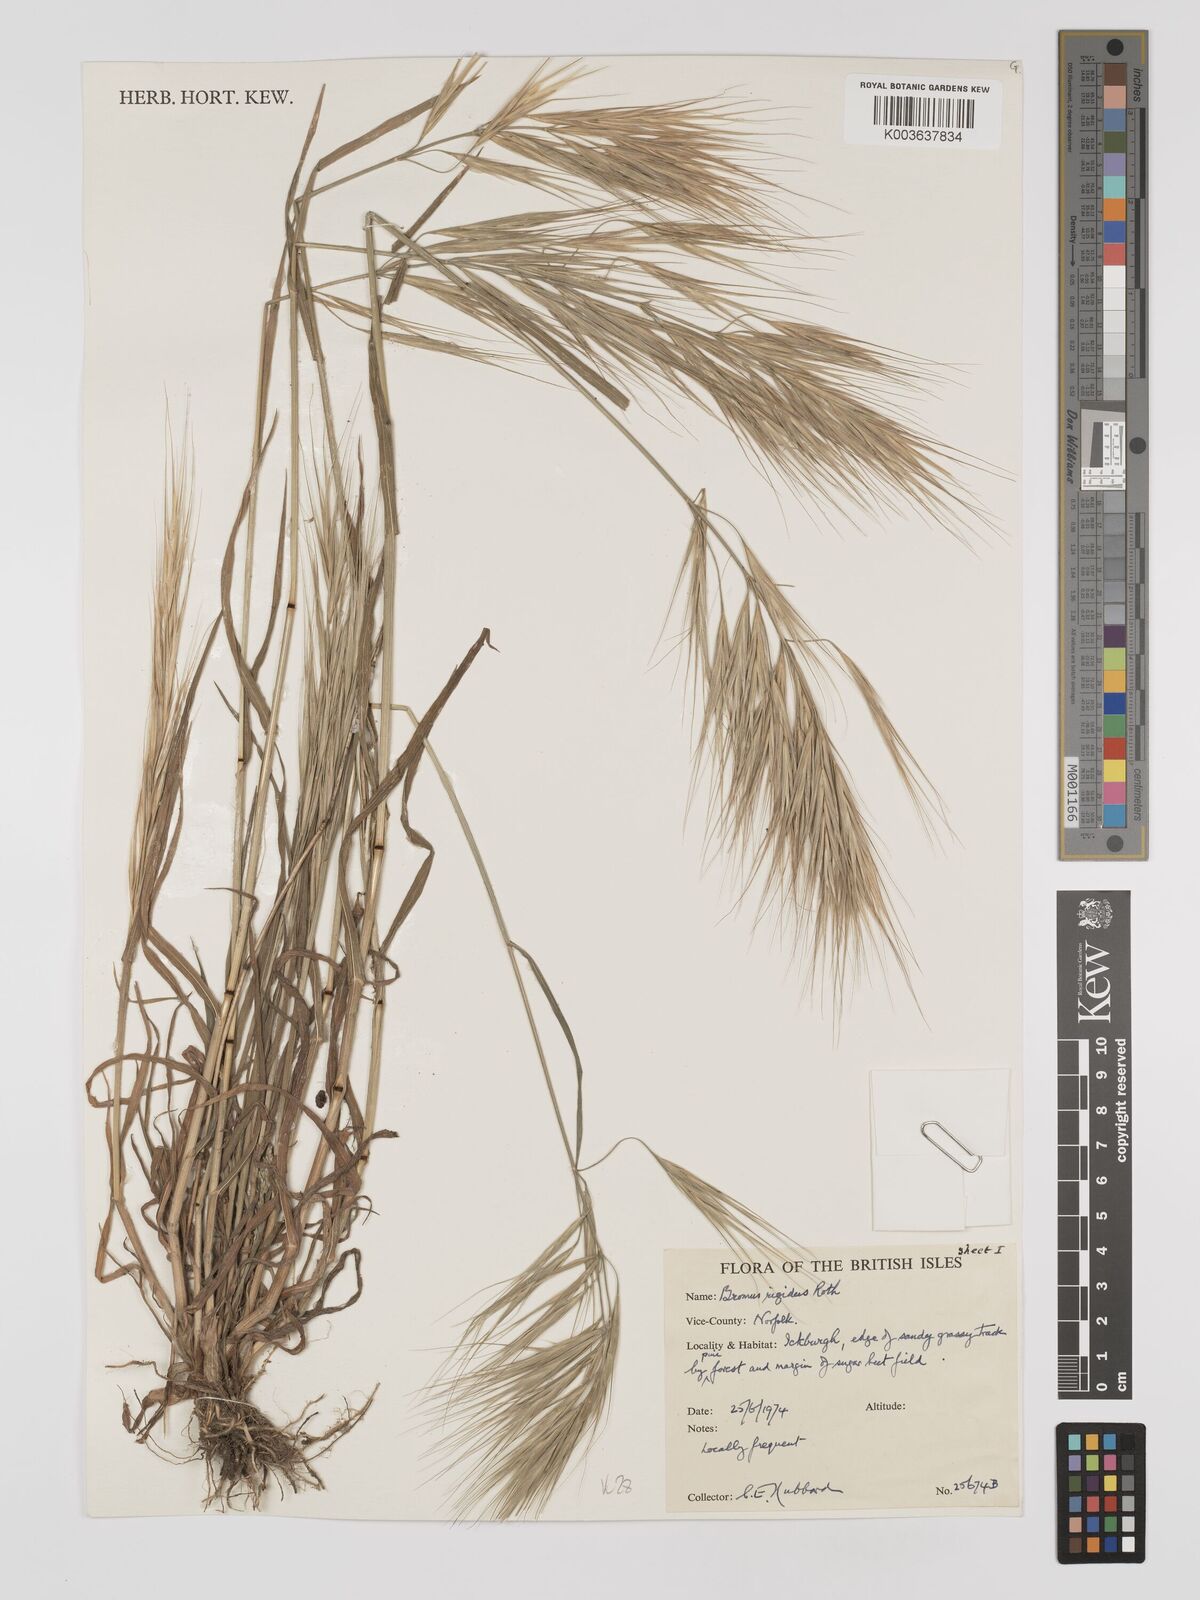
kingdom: Plantae
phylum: Tracheophyta
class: Liliopsida
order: Poales
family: Poaceae
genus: Bromus
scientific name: Bromus
